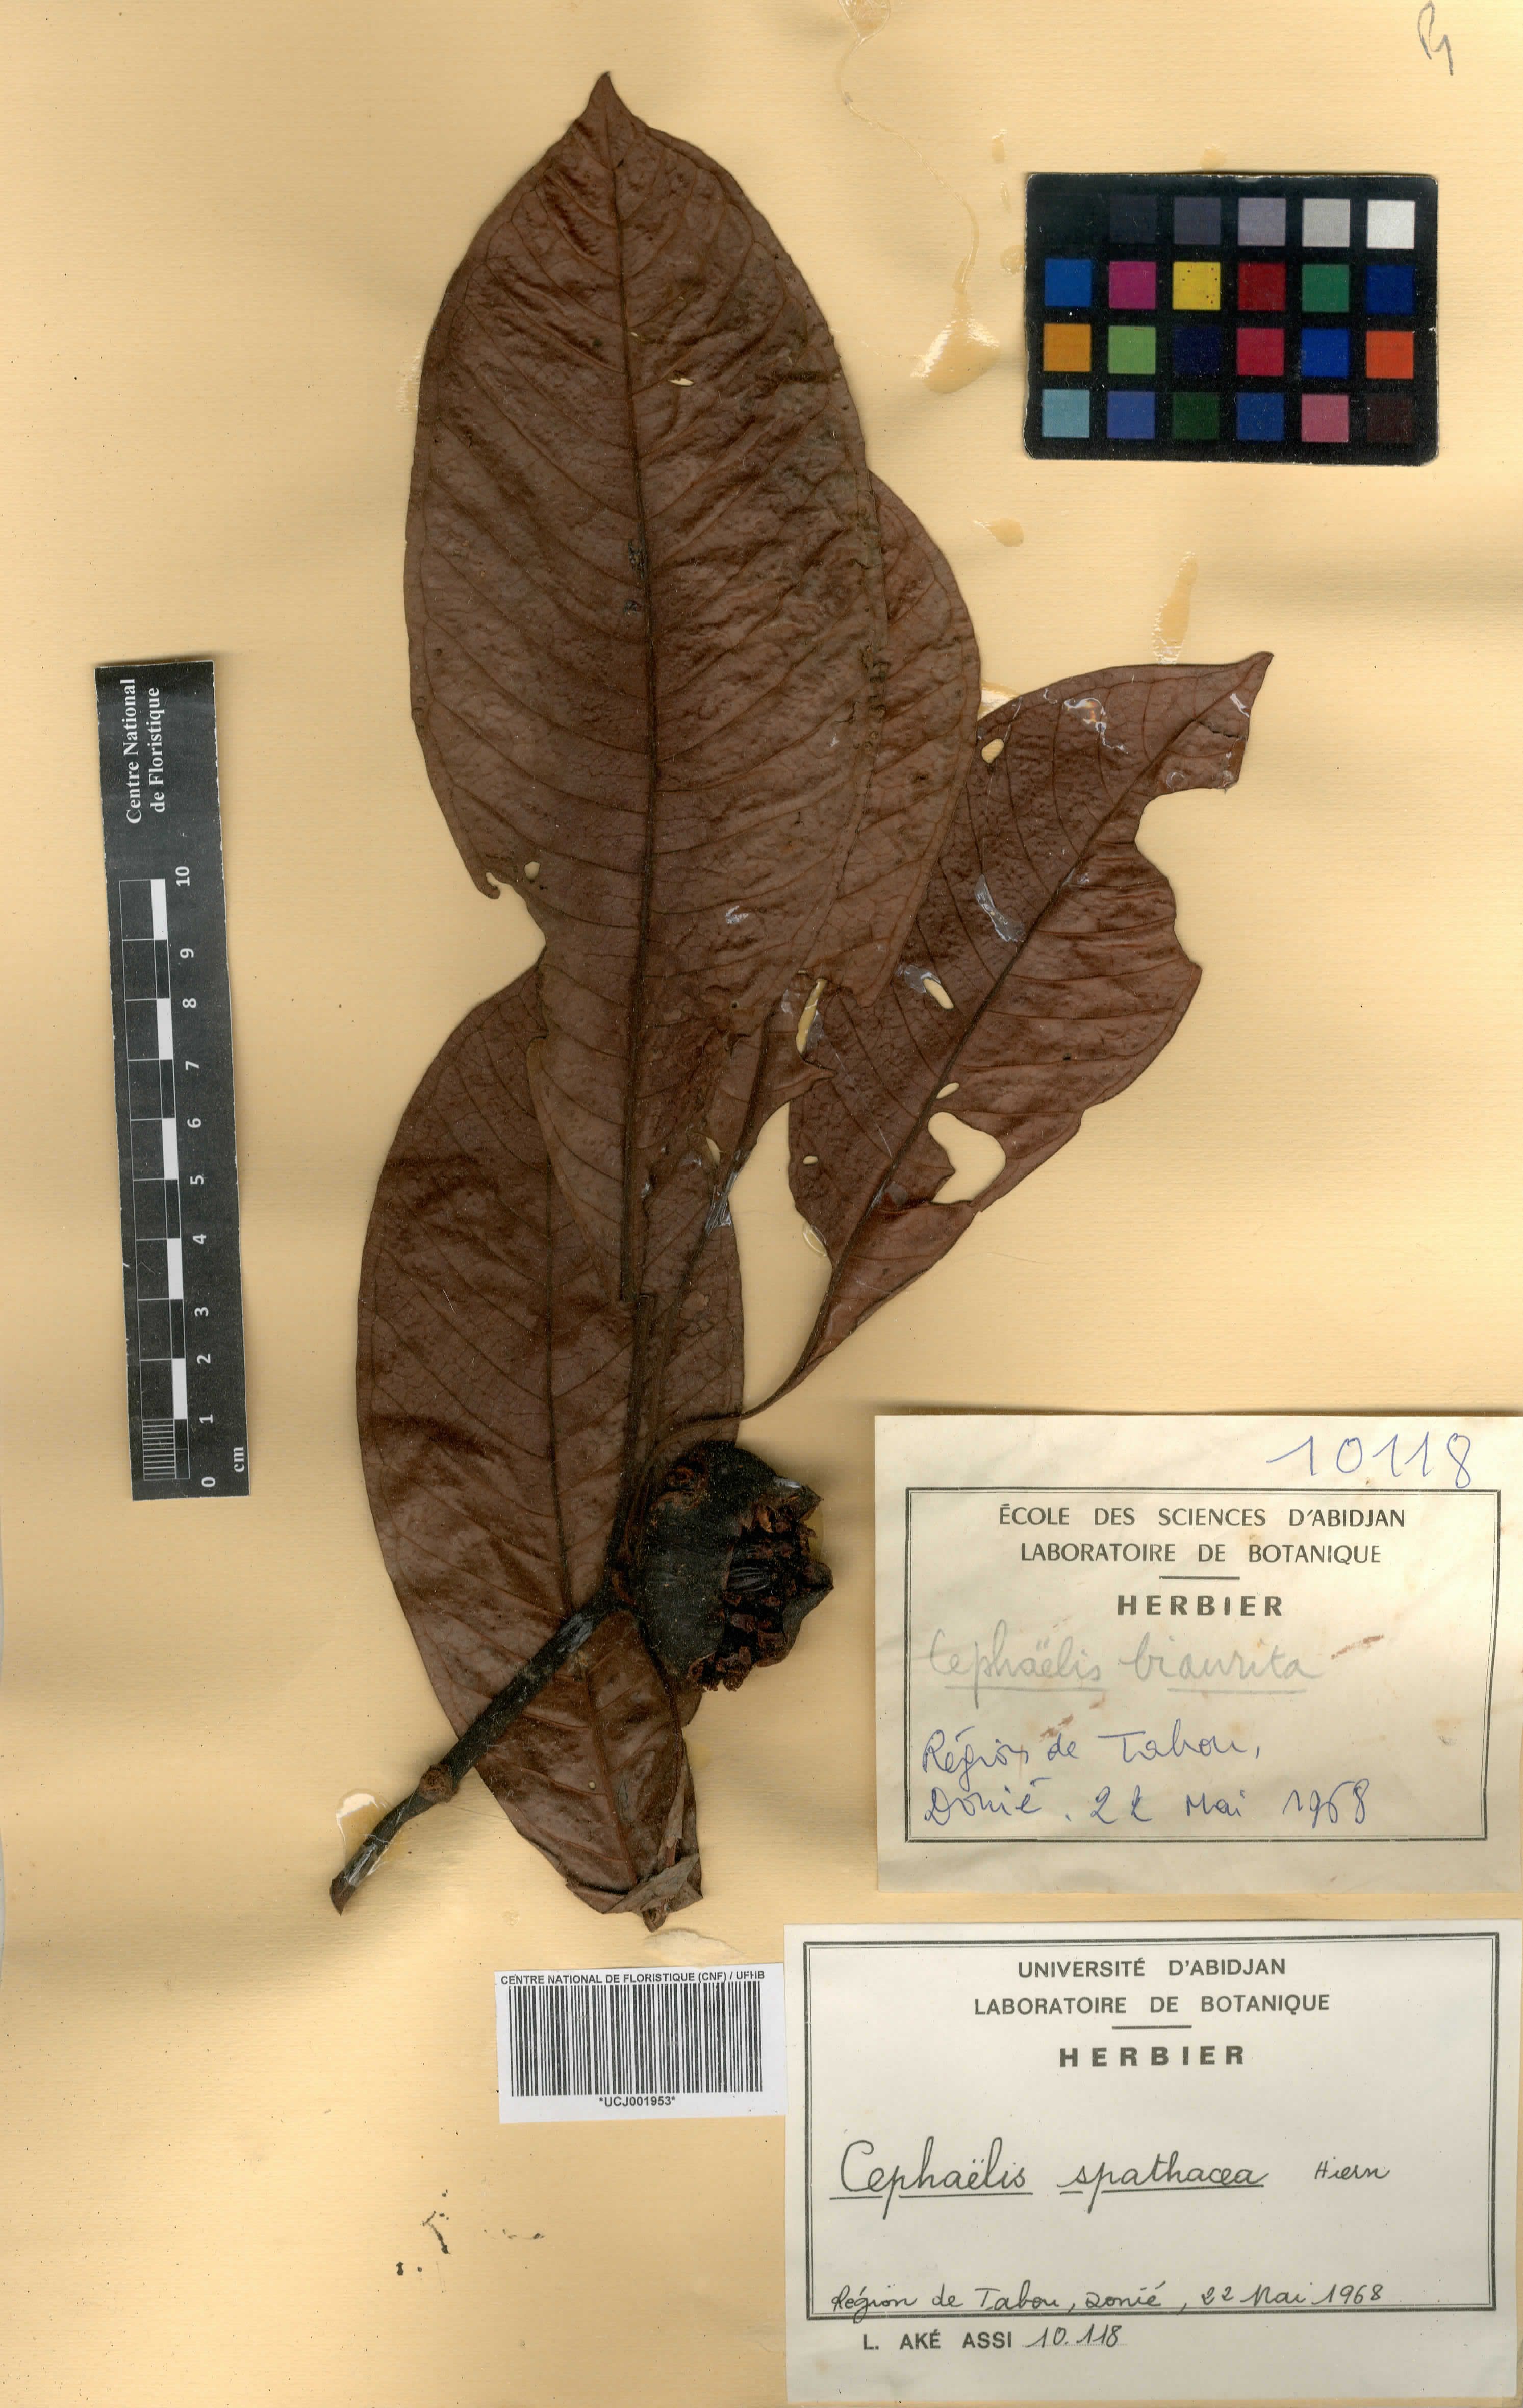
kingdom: Plantae
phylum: Tracheophyta
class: Magnoliopsida
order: Gentianales
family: Rubiaceae
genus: Psychotria
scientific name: Psychotria spathacea
